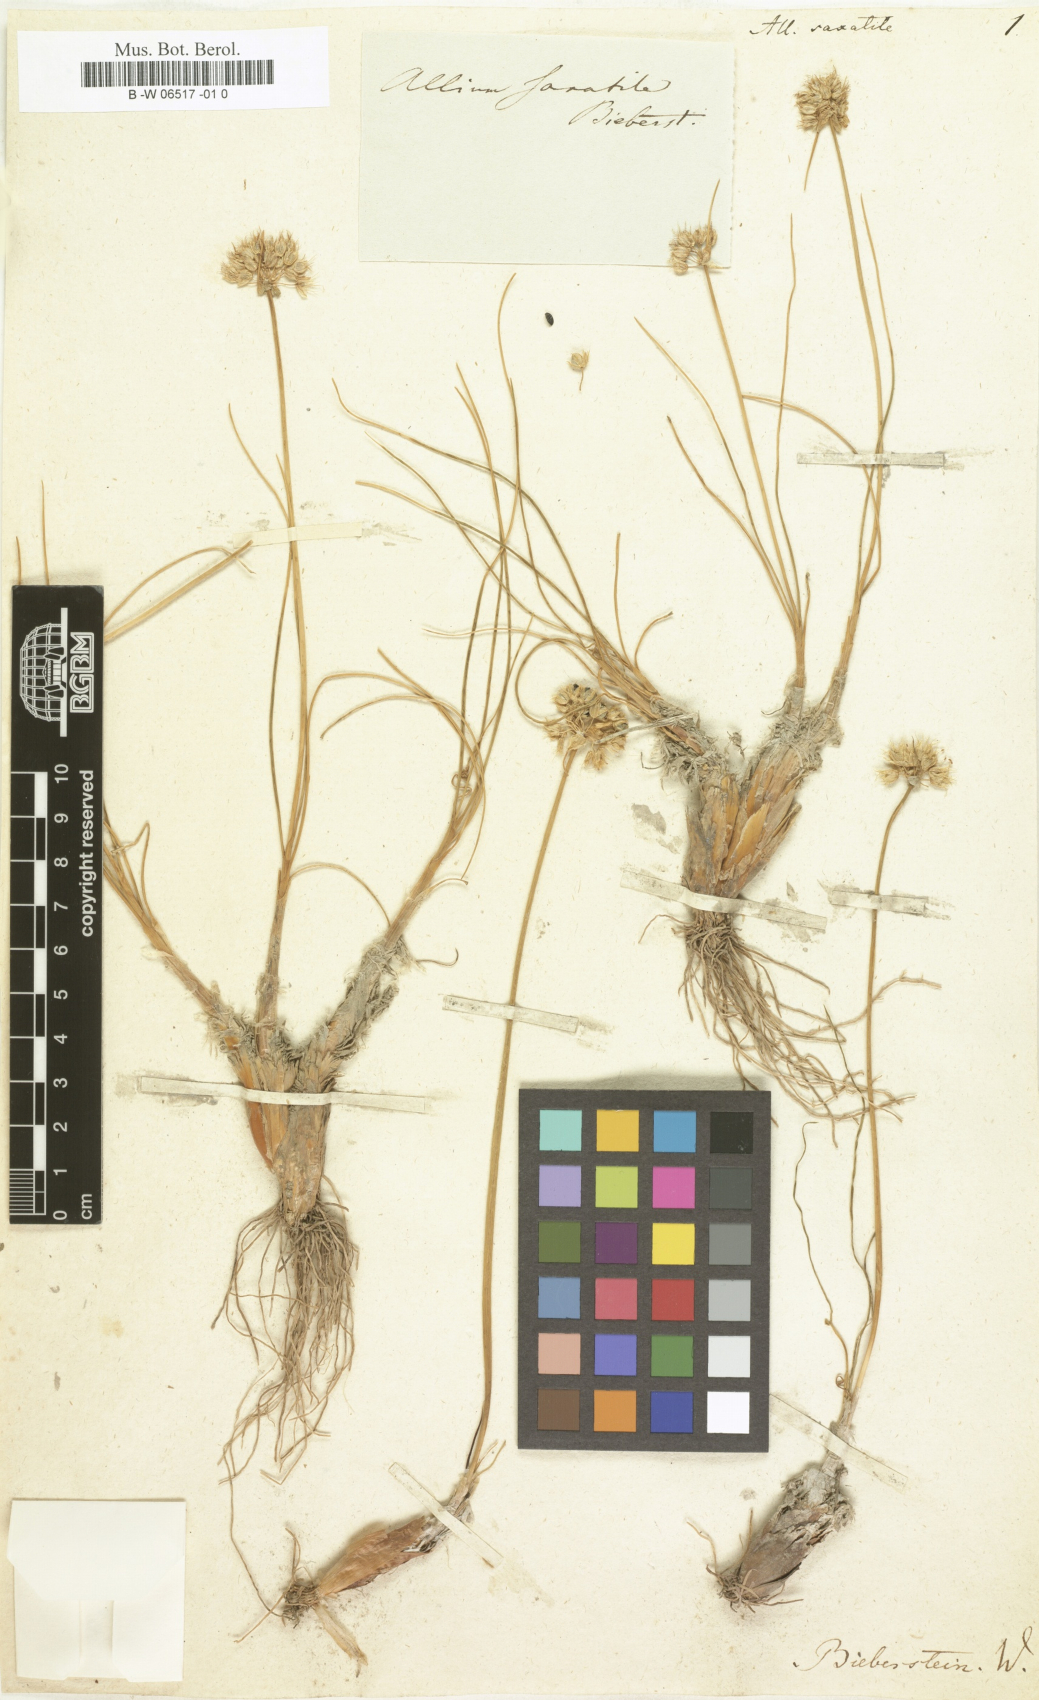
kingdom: Plantae
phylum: Tracheophyta
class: Liliopsida
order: Asparagales
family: Amaryllidaceae
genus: Allium
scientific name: Allium saxatile
